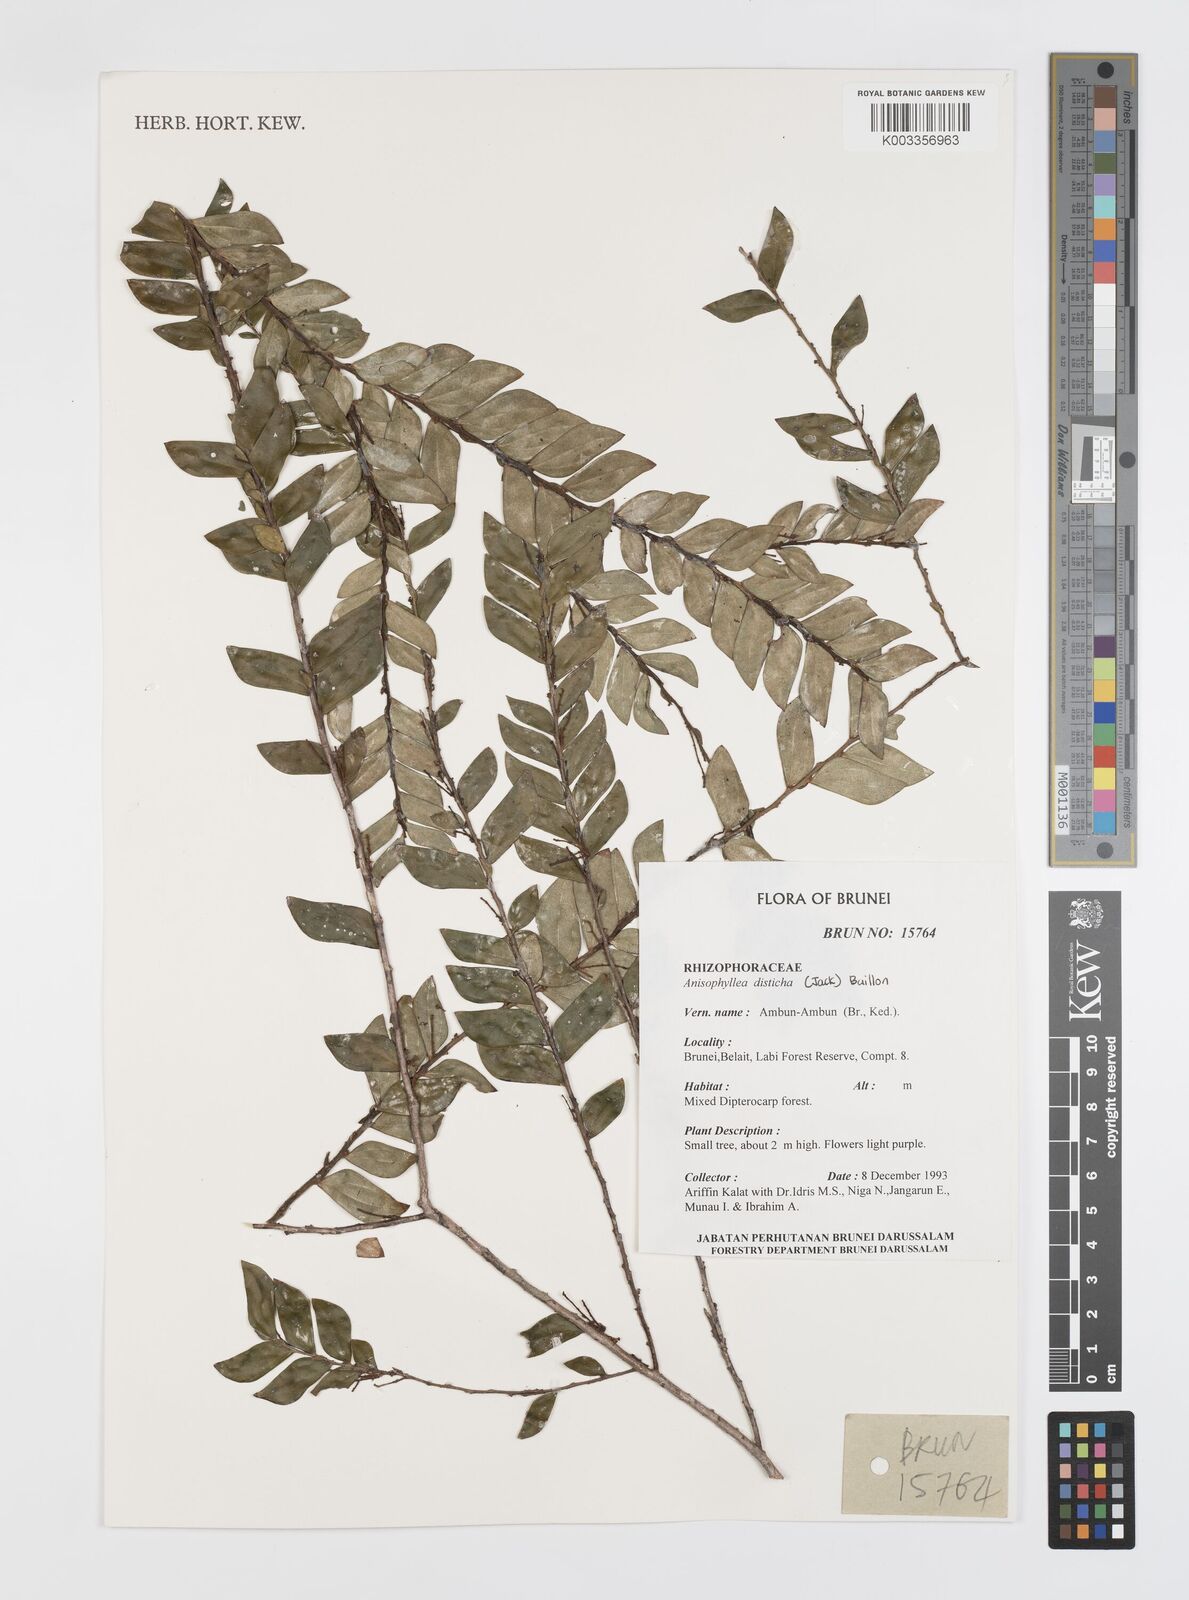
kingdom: Plantae
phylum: Tracheophyta
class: Magnoliopsida
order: Cucurbitales
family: Anisophylleaceae
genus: Anisophyllea
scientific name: Anisophyllea disticha
